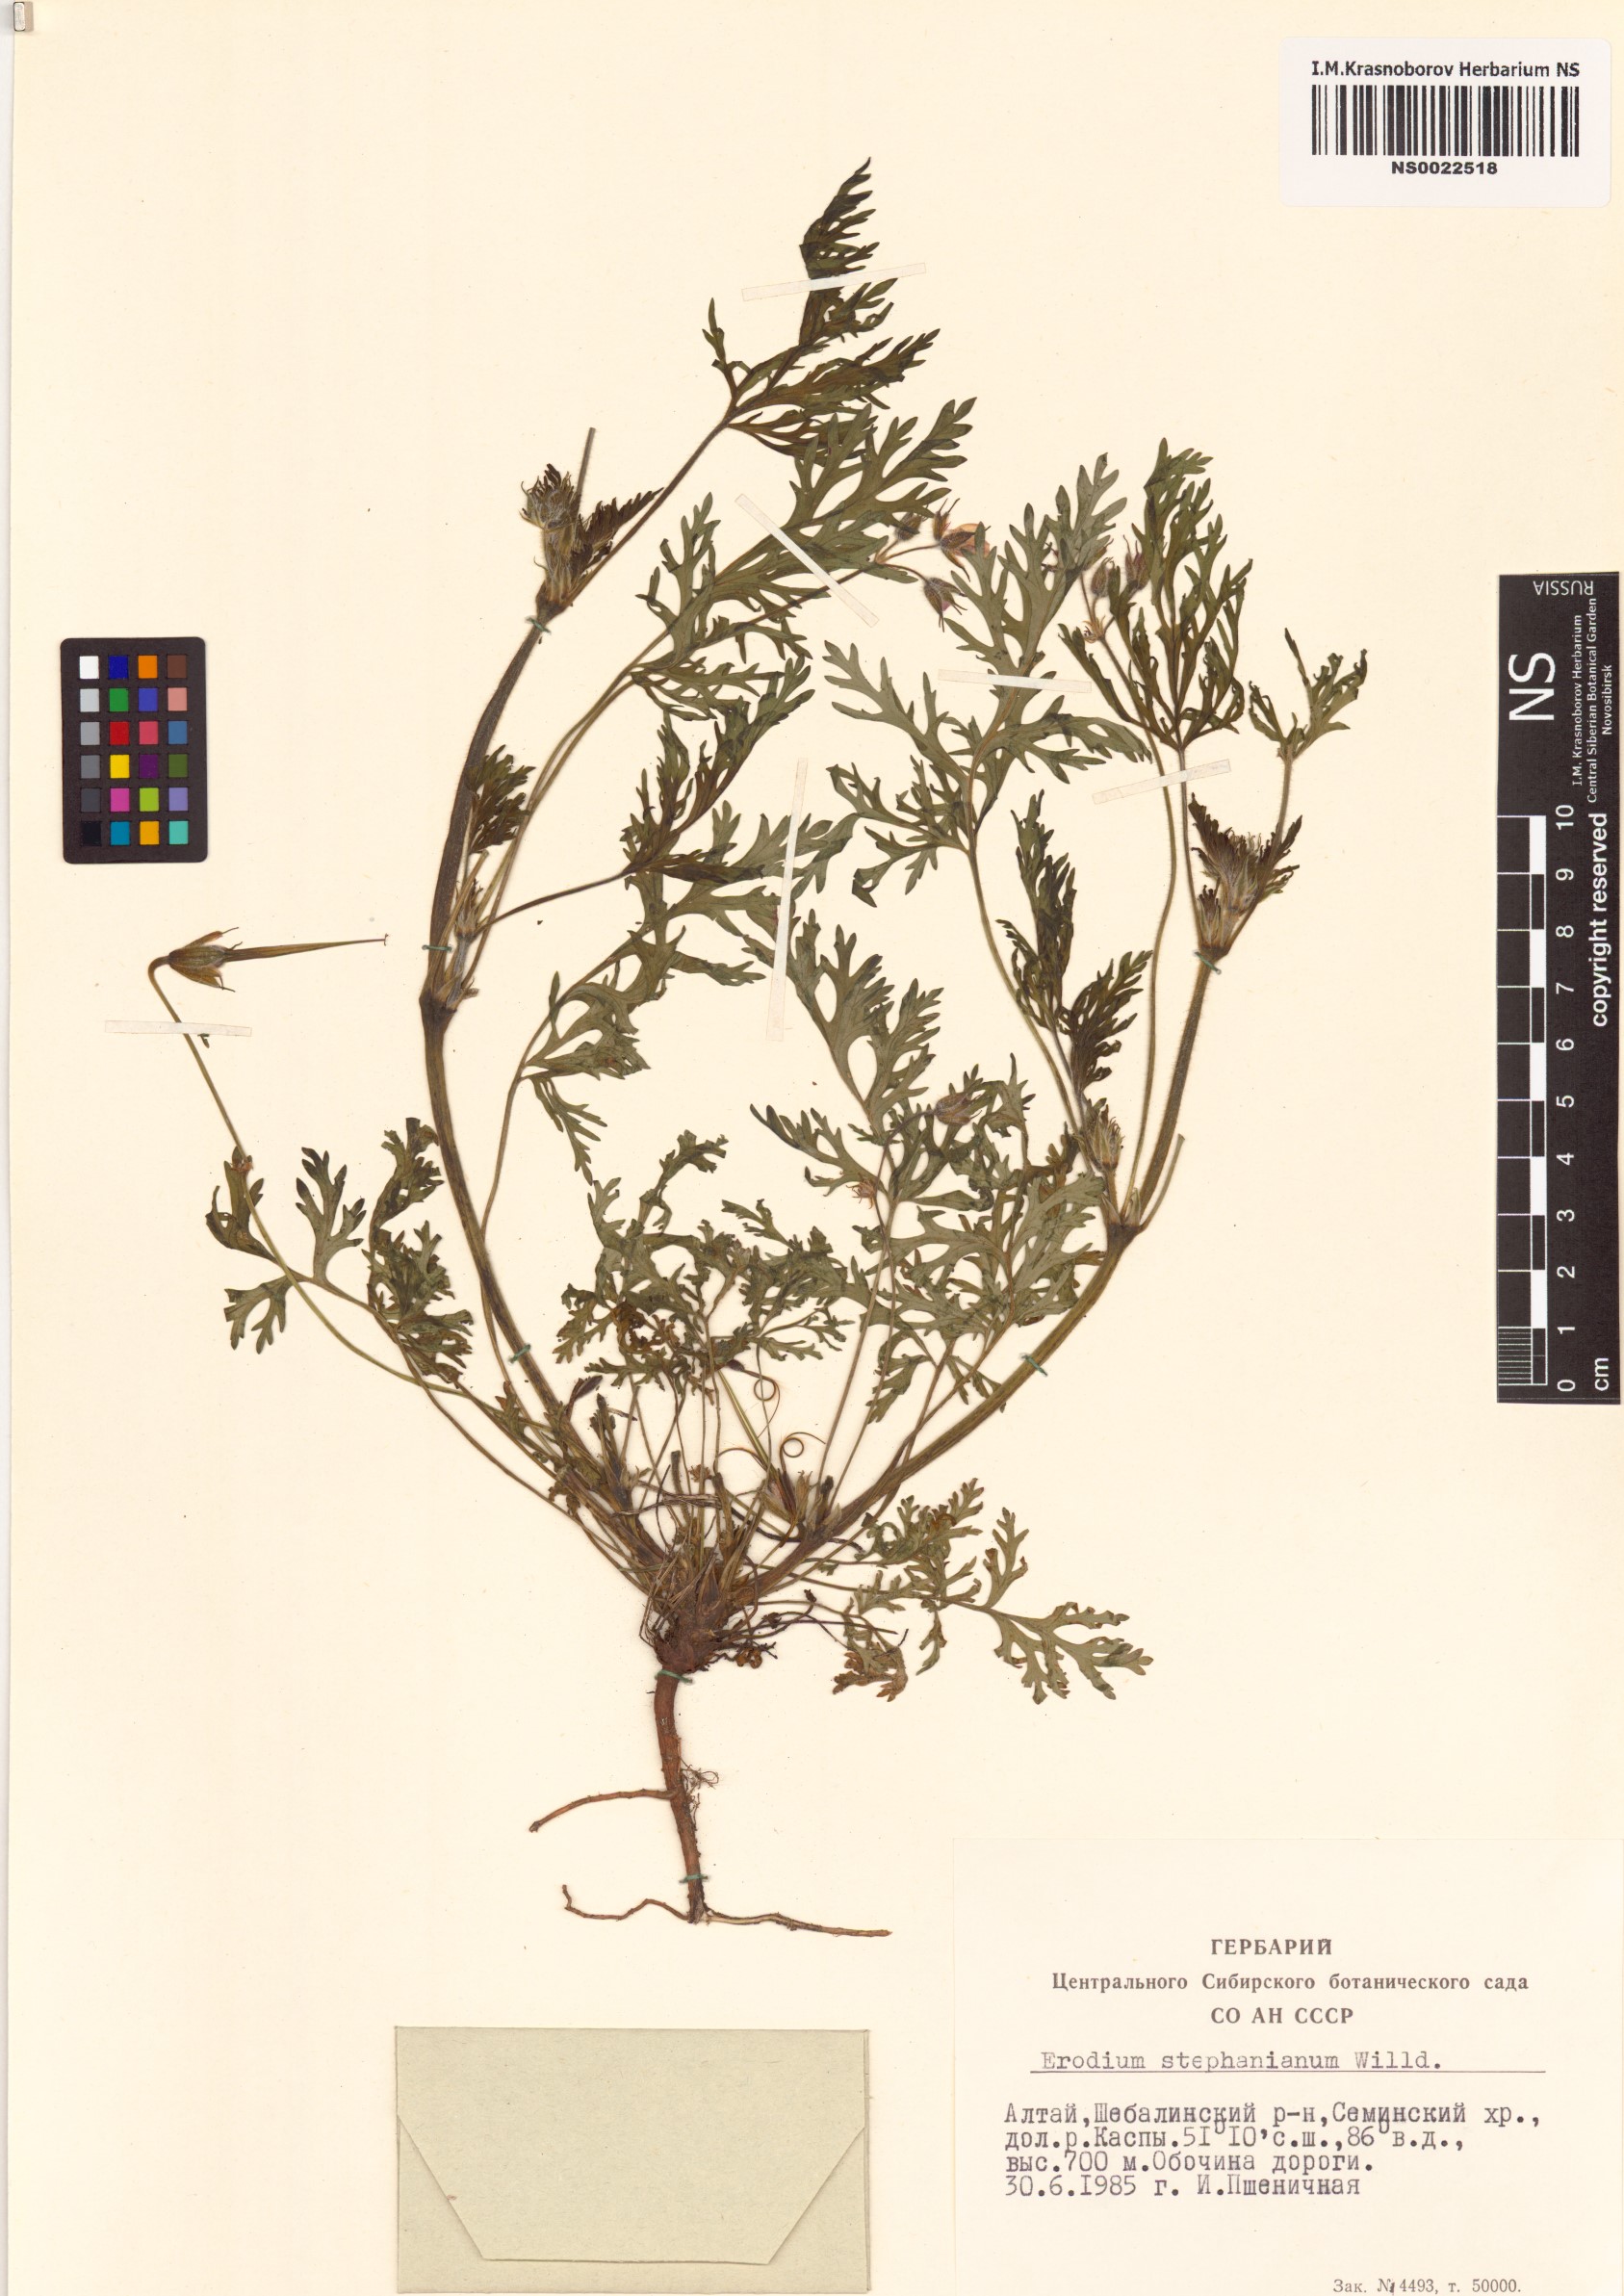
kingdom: Plantae
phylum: Tracheophyta
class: Magnoliopsida
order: Geraniales
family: Geraniaceae
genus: Erodium
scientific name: Erodium stephanianum
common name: Stephen's stork's bill
